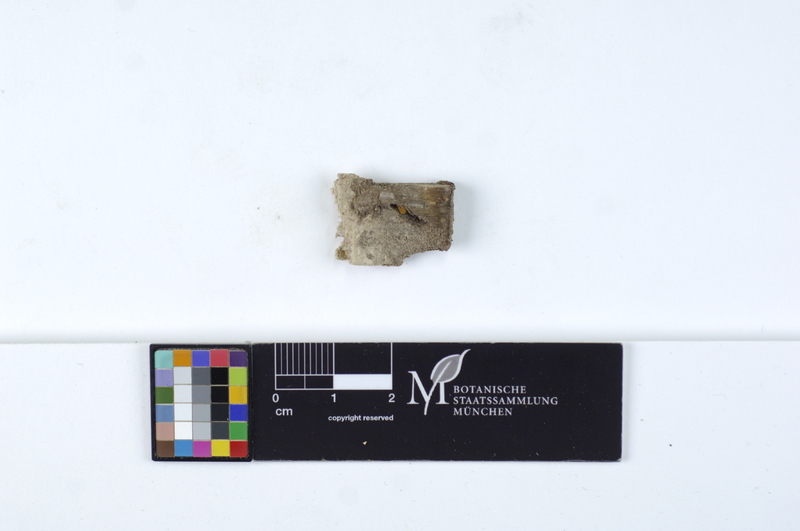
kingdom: Fungi
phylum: Ascomycota
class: Eurotiomycetes
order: Eurotiales
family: Elaphomycetaceae
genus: Elaphomyces
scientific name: Elaphomyces
